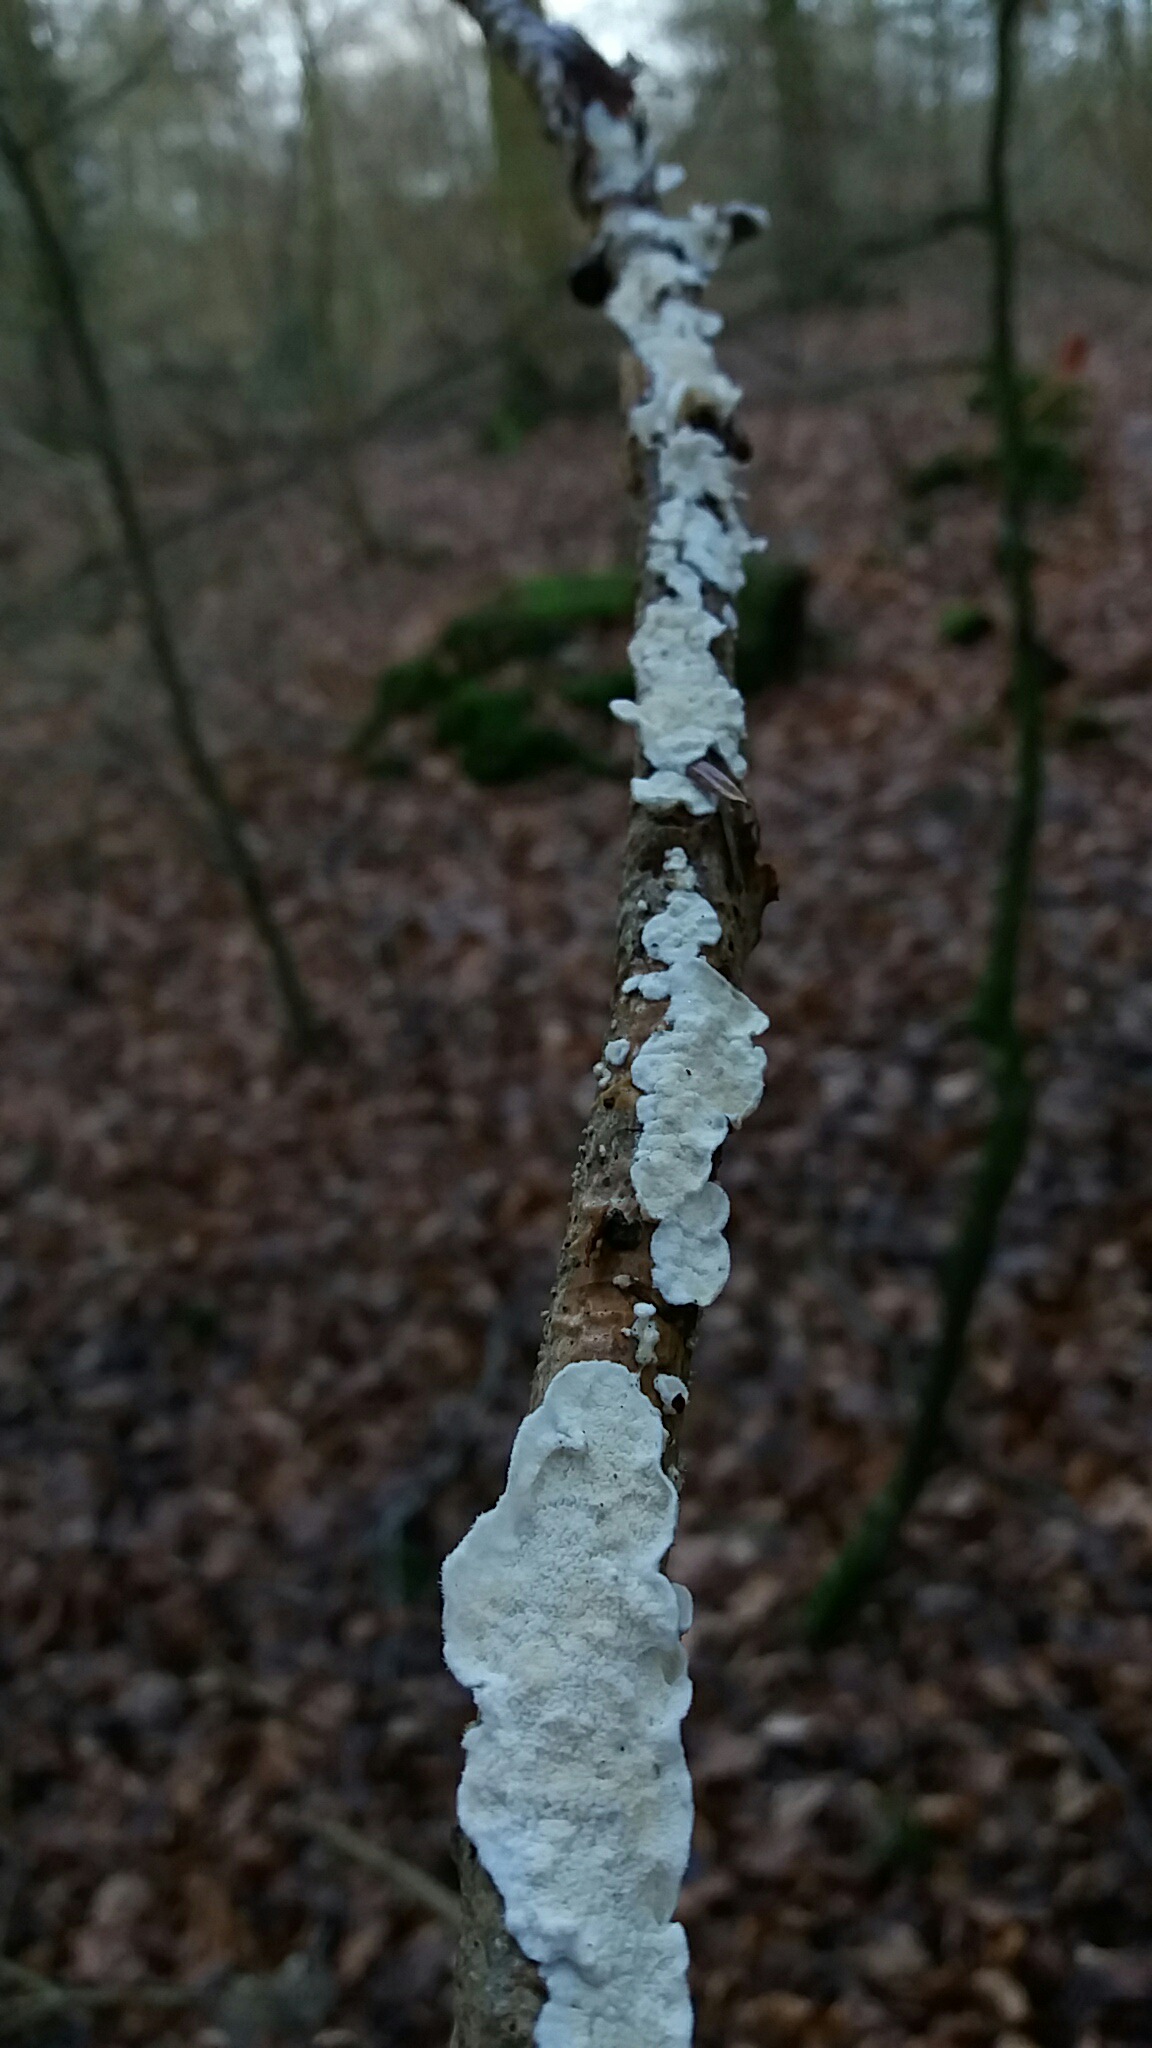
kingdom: Fungi
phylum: Basidiomycota
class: Agaricomycetes
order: Polyporales
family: Irpicaceae
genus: Byssomerulius
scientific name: Byssomerulius corium
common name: læder-åresvamp
